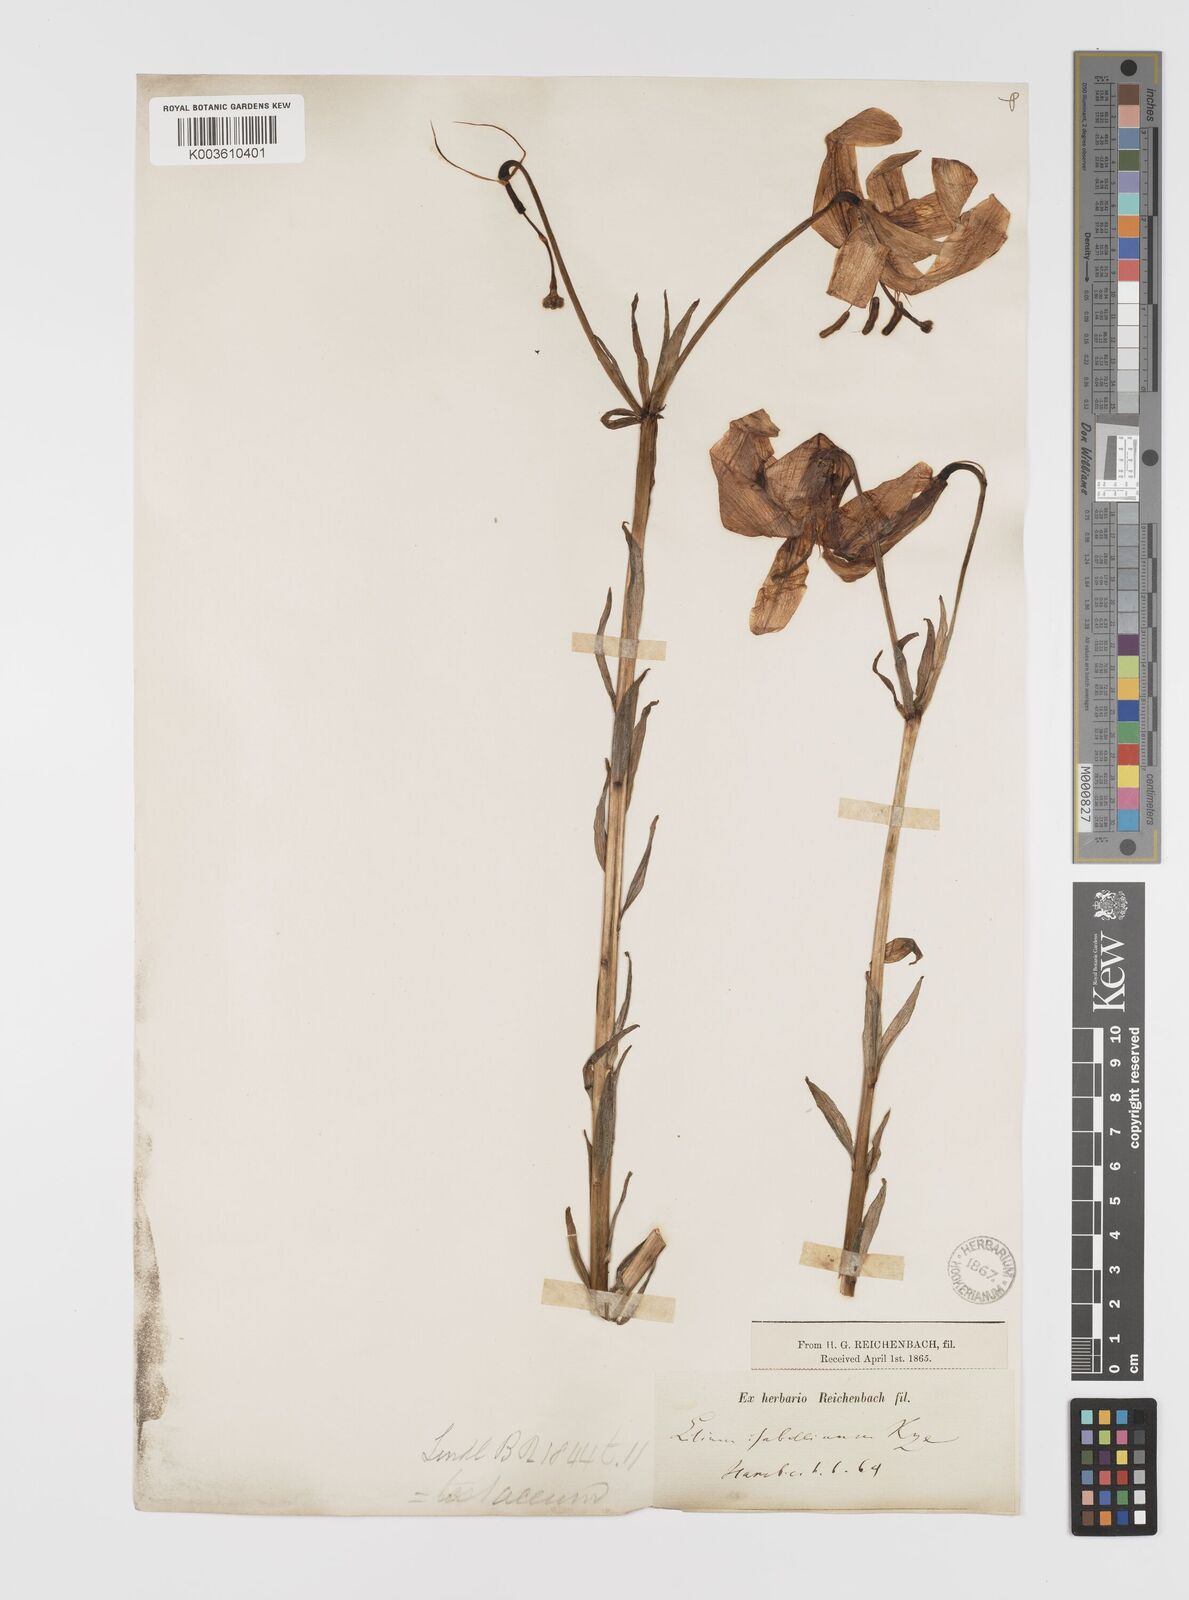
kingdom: Plantae
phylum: Tracheophyta
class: Liliopsida
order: Liliales
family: Liliaceae
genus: Lilium
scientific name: Lilium testaceum
